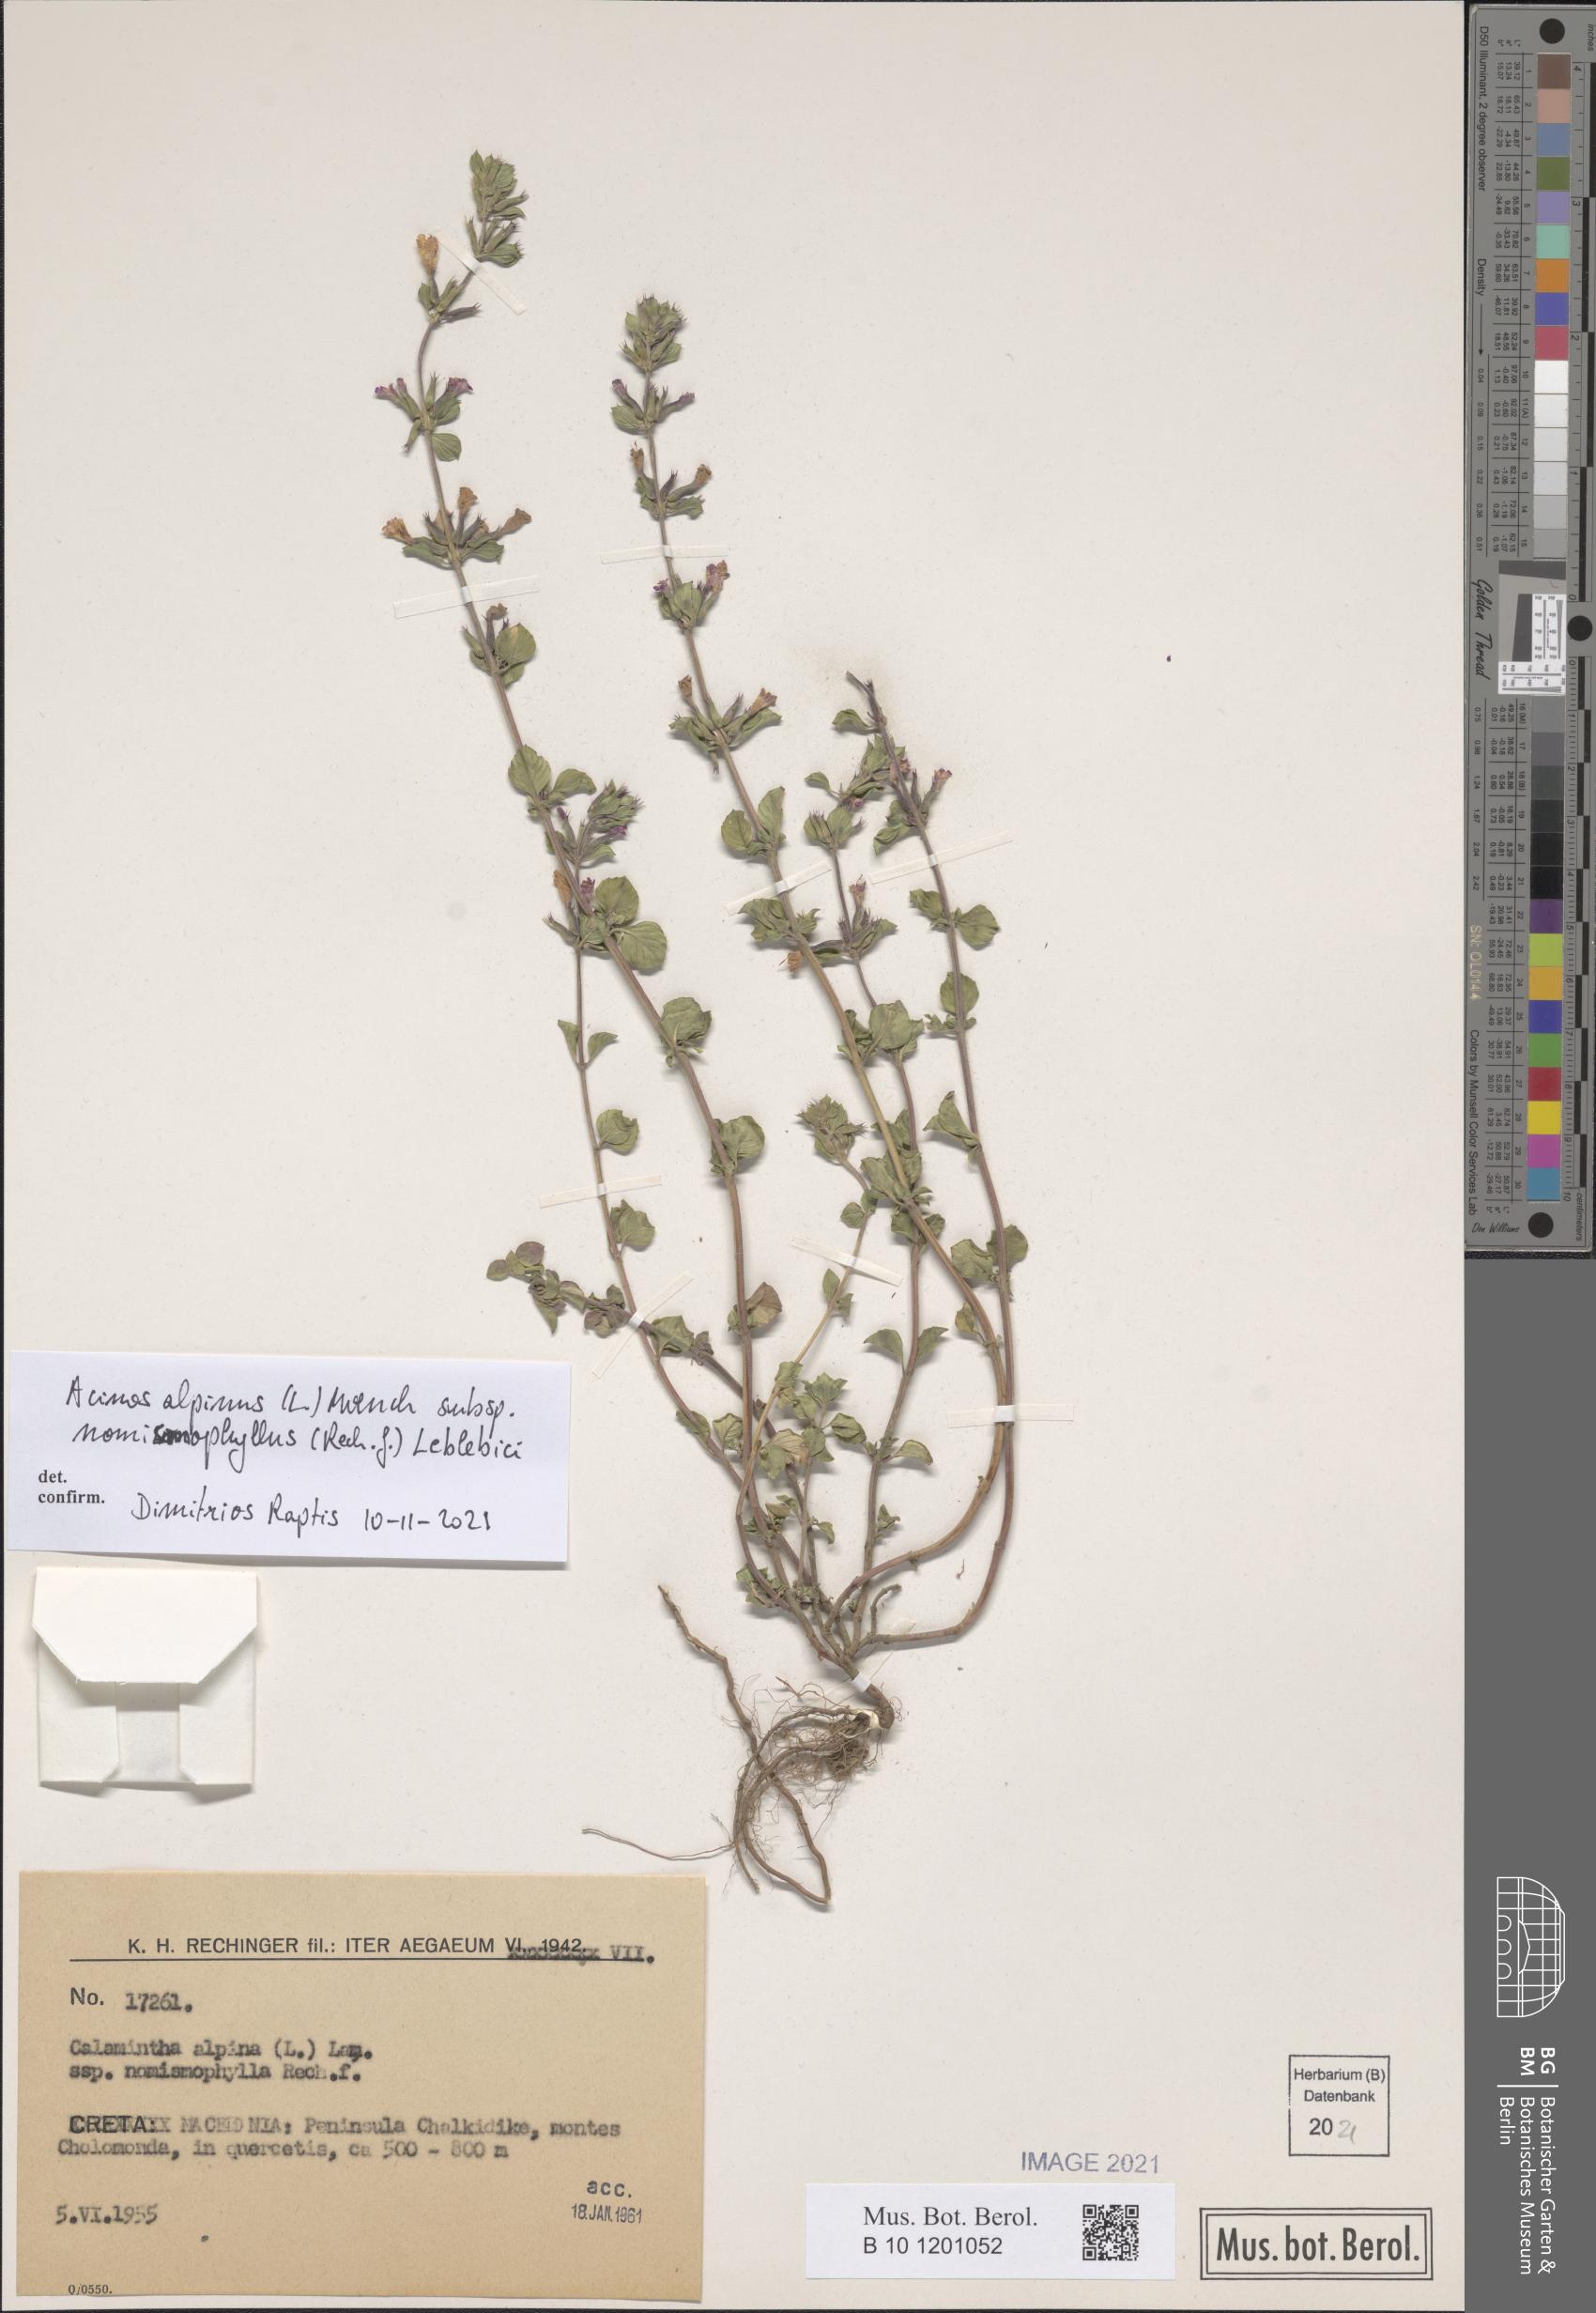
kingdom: Plantae
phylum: Tracheophyta
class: Magnoliopsida
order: Lamiales
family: Lamiaceae
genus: Clinopodium
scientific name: Clinopodium alpinum
